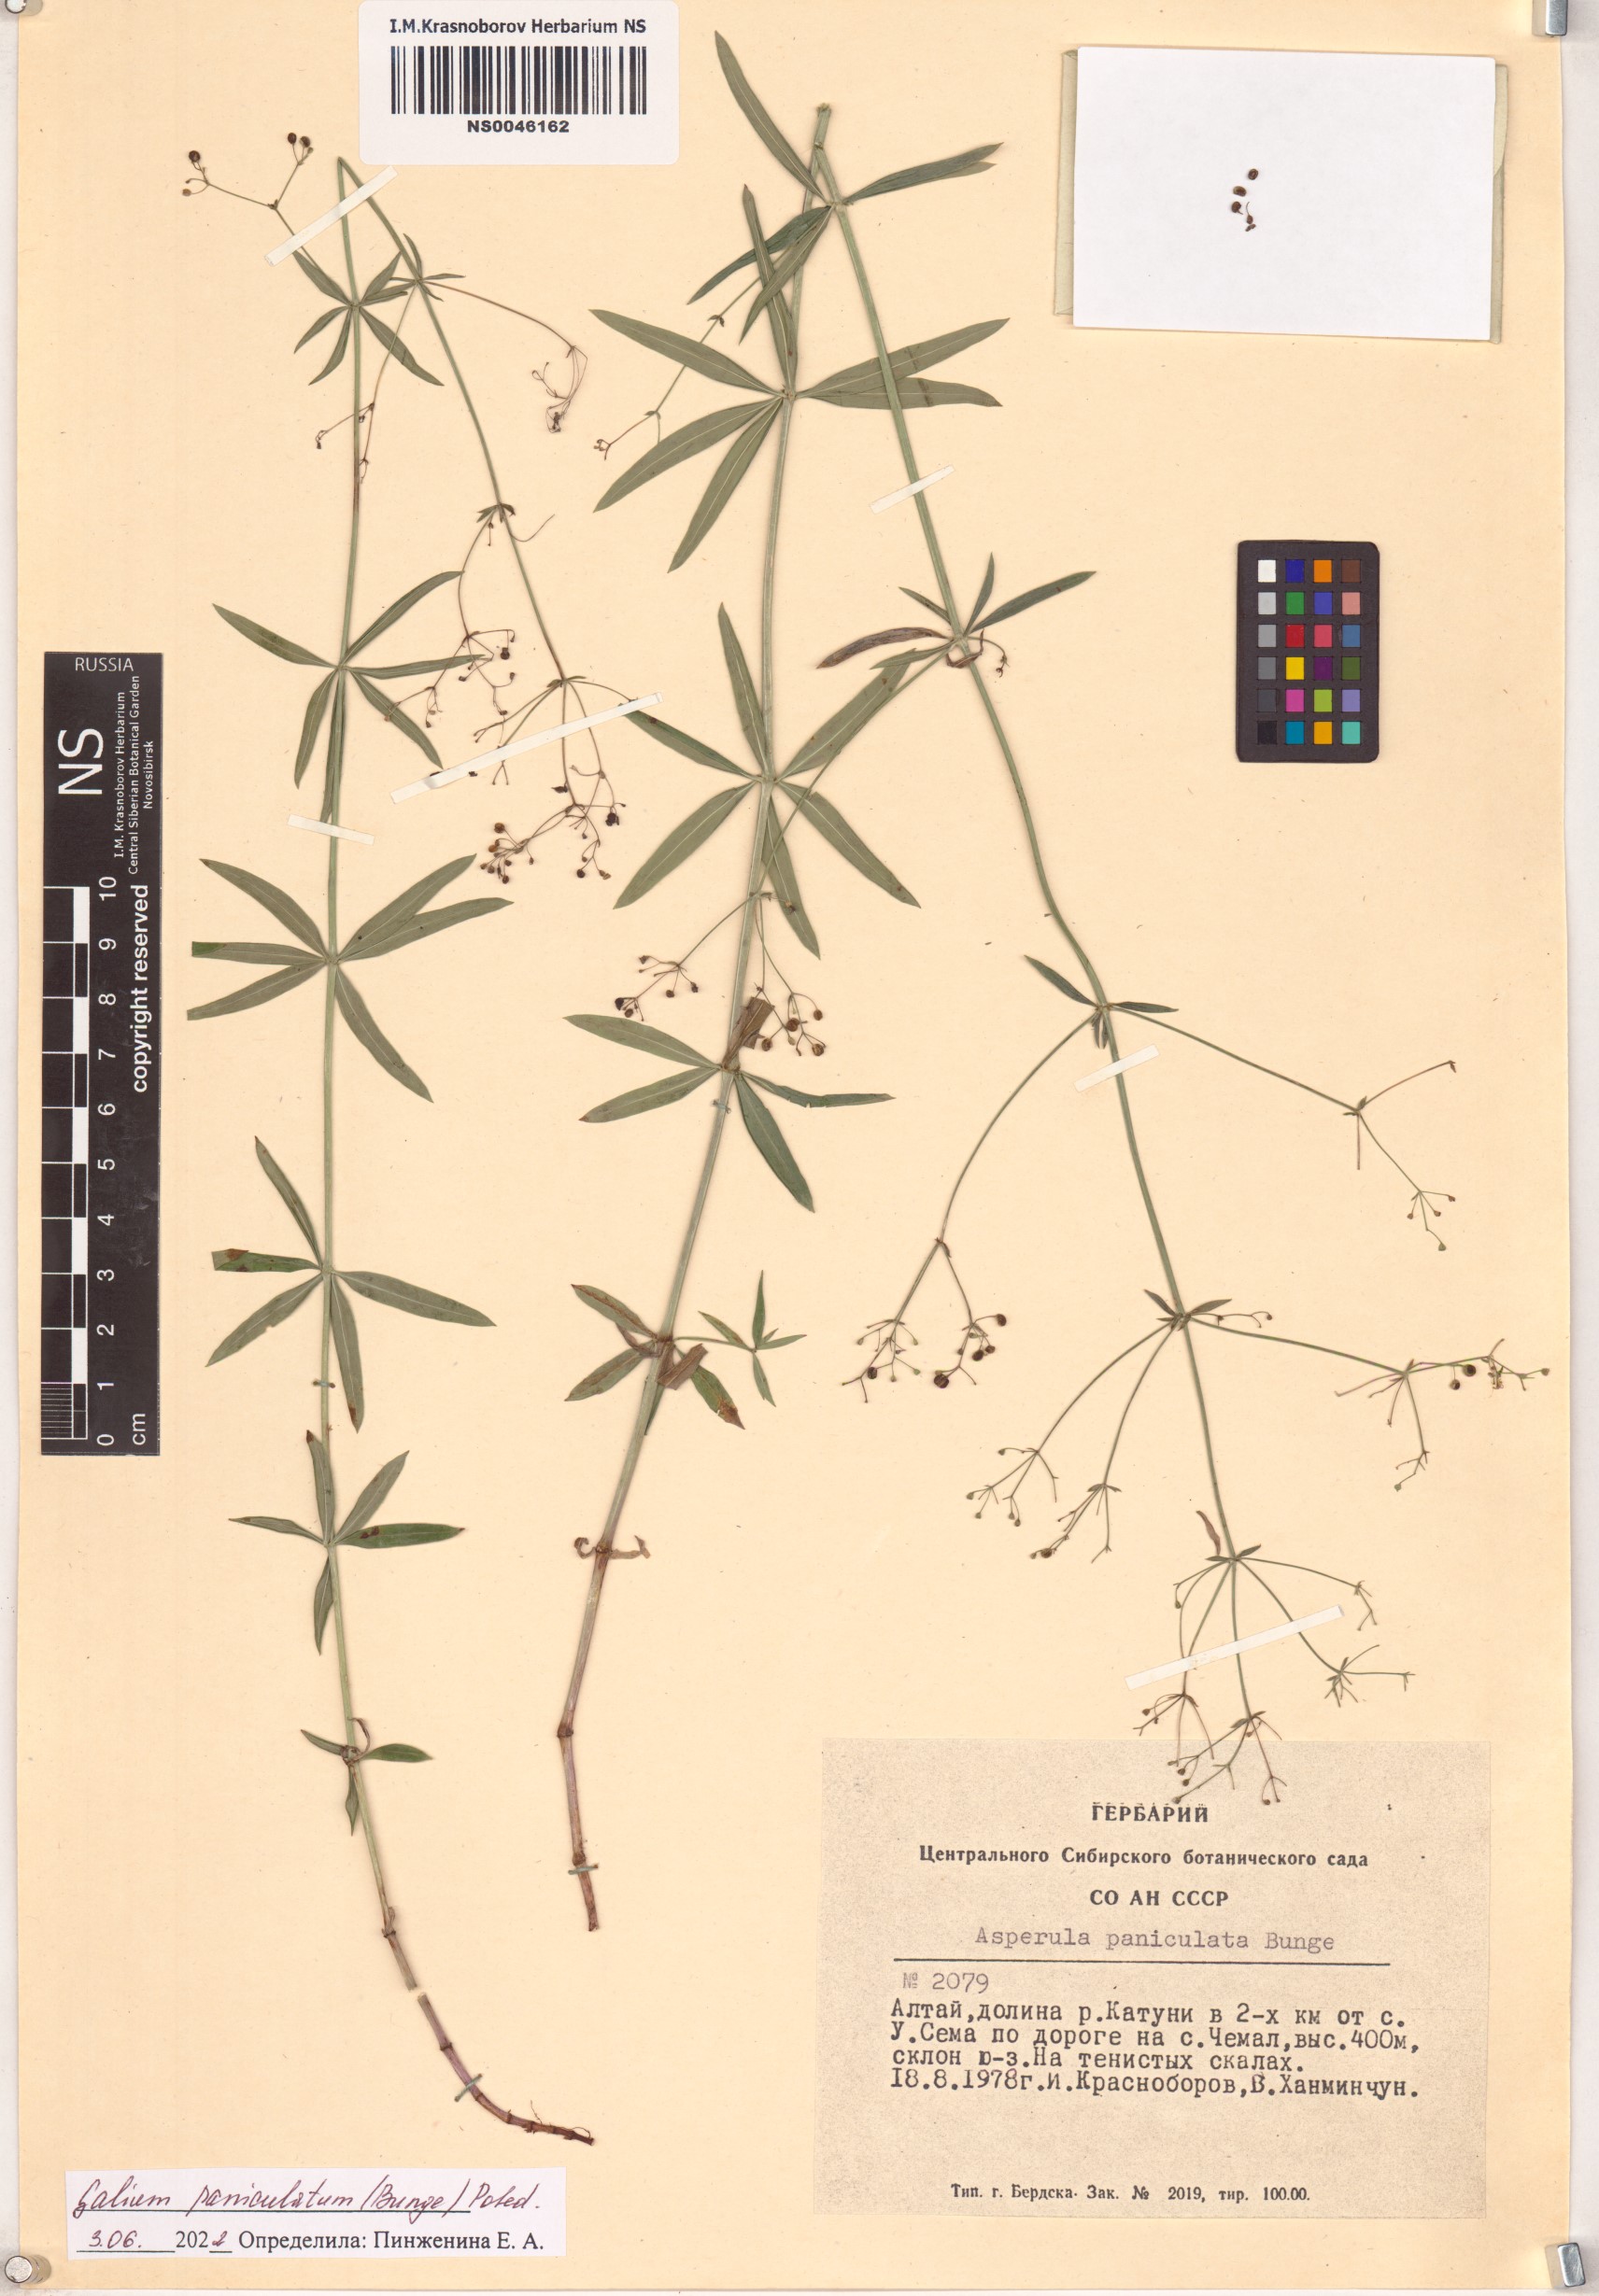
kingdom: Plantae
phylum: Tracheophyta
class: Magnoliopsida
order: Gentianales
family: Rubiaceae
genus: Galium
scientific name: Galium paniculatum
